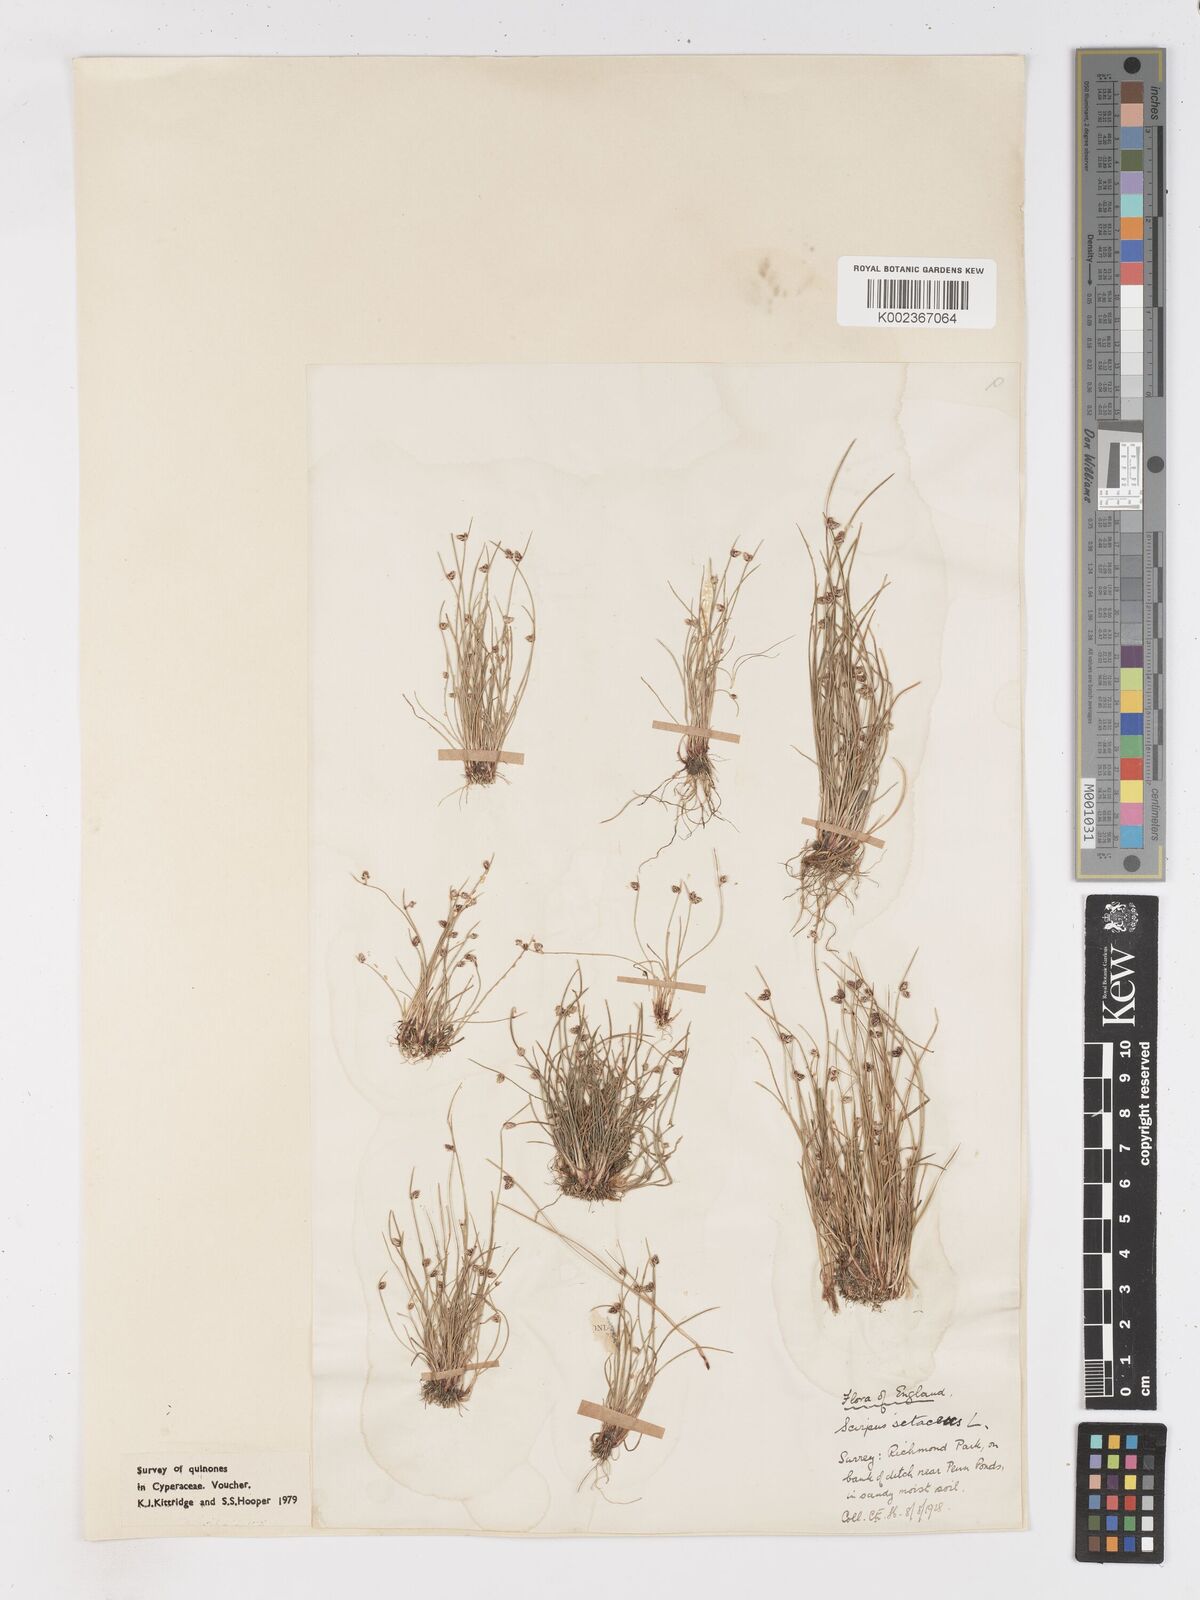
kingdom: Plantae
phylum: Tracheophyta
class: Liliopsida
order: Poales
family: Cyperaceae
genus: Isolepis
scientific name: Isolepis setacea
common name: Bristle club-rush
